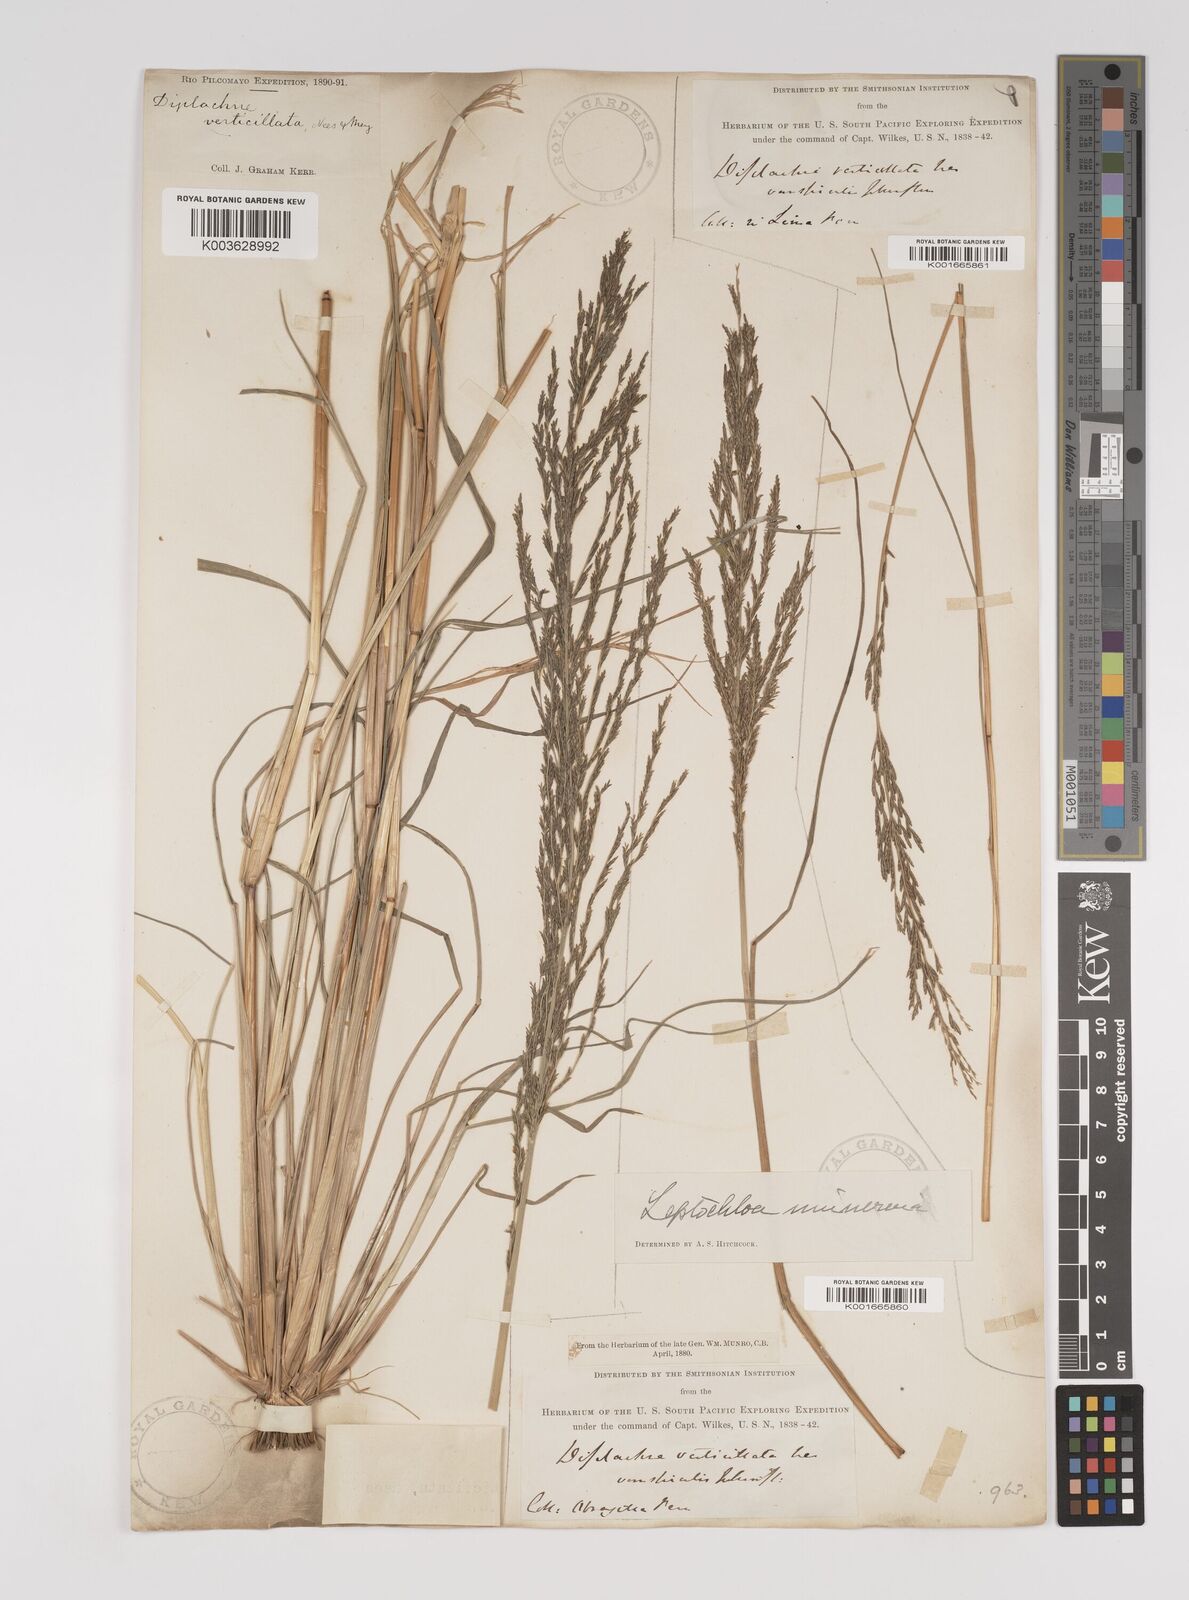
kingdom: Plantae
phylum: Tracheophyta
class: Liliopsida
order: Poales
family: Poaceae
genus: Diplachne
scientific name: Diplachne fusca
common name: Brown beetle grass
